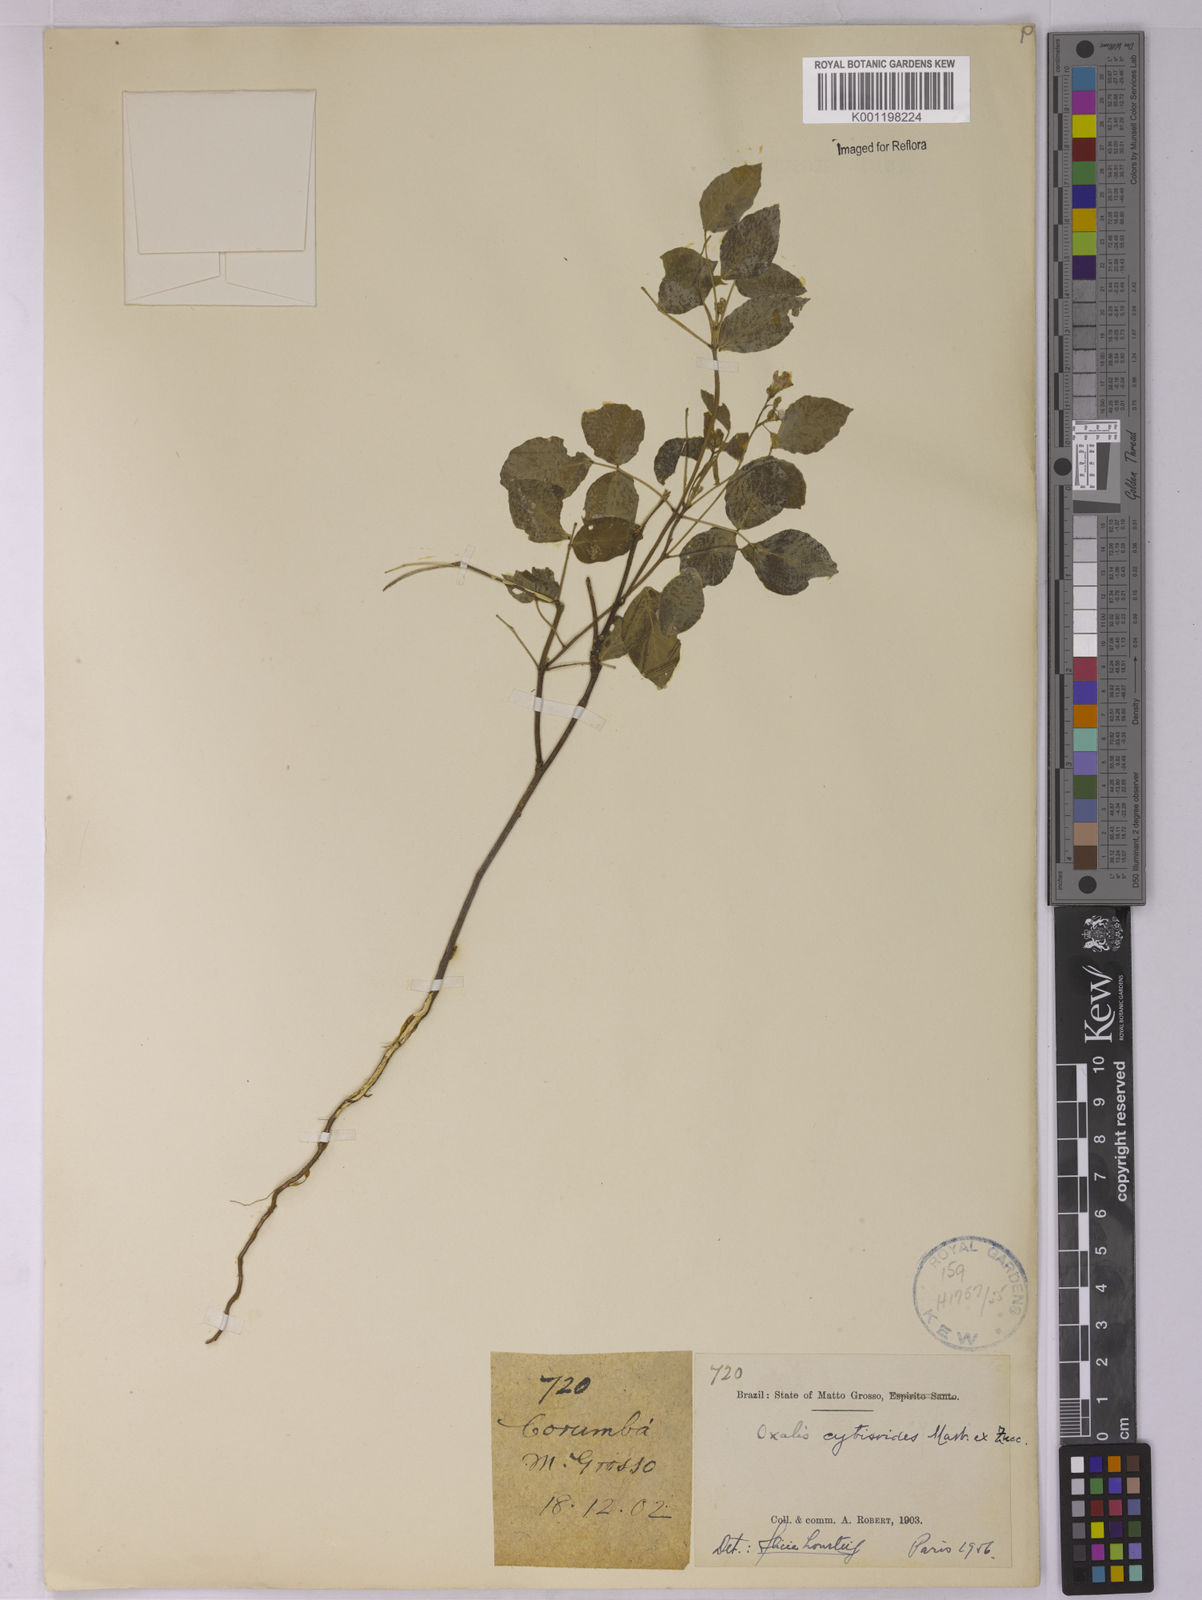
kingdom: Plantae
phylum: Tracheophyta
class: Magnoliopsida
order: Oxalidales
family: Oxalidaceae
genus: Oxalis
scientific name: Oxalis cytisoides
